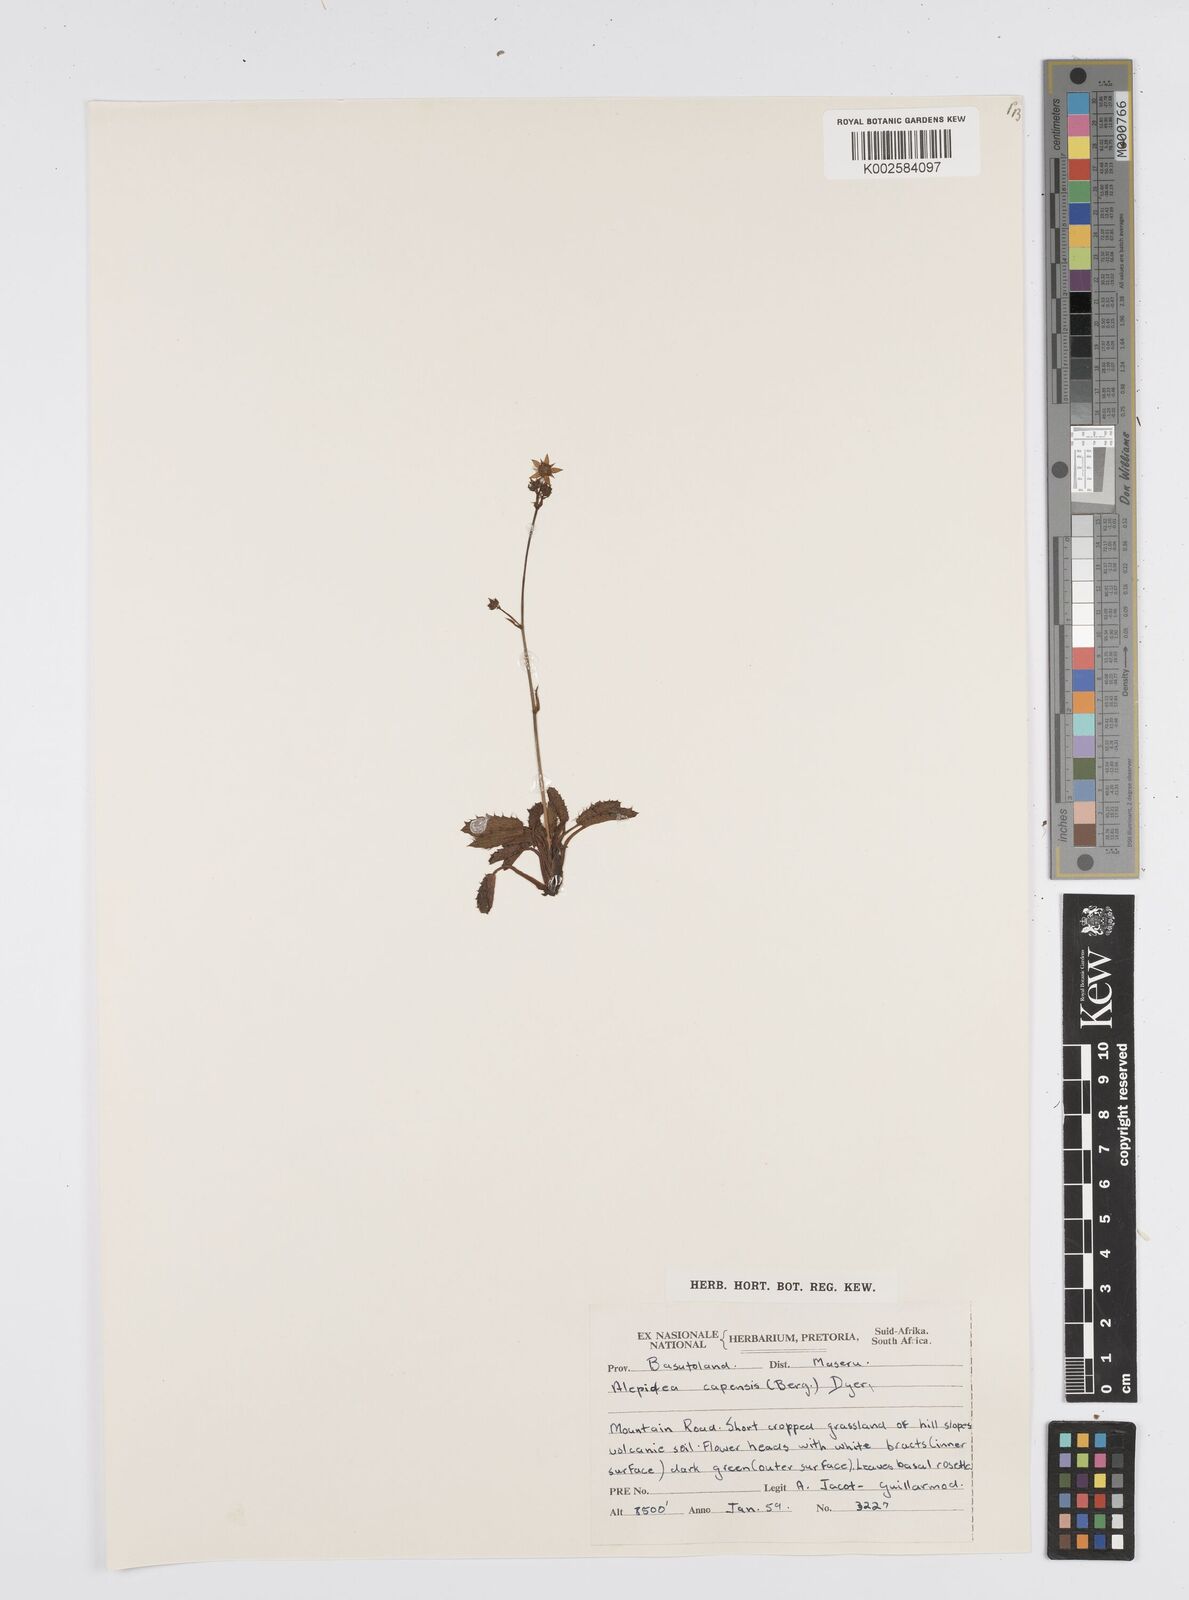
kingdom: Plantae
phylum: Tracheophyta
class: Magnoliopsida
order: Apiales
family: Apiaceae
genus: Alepidea
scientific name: Alepidea capensis
